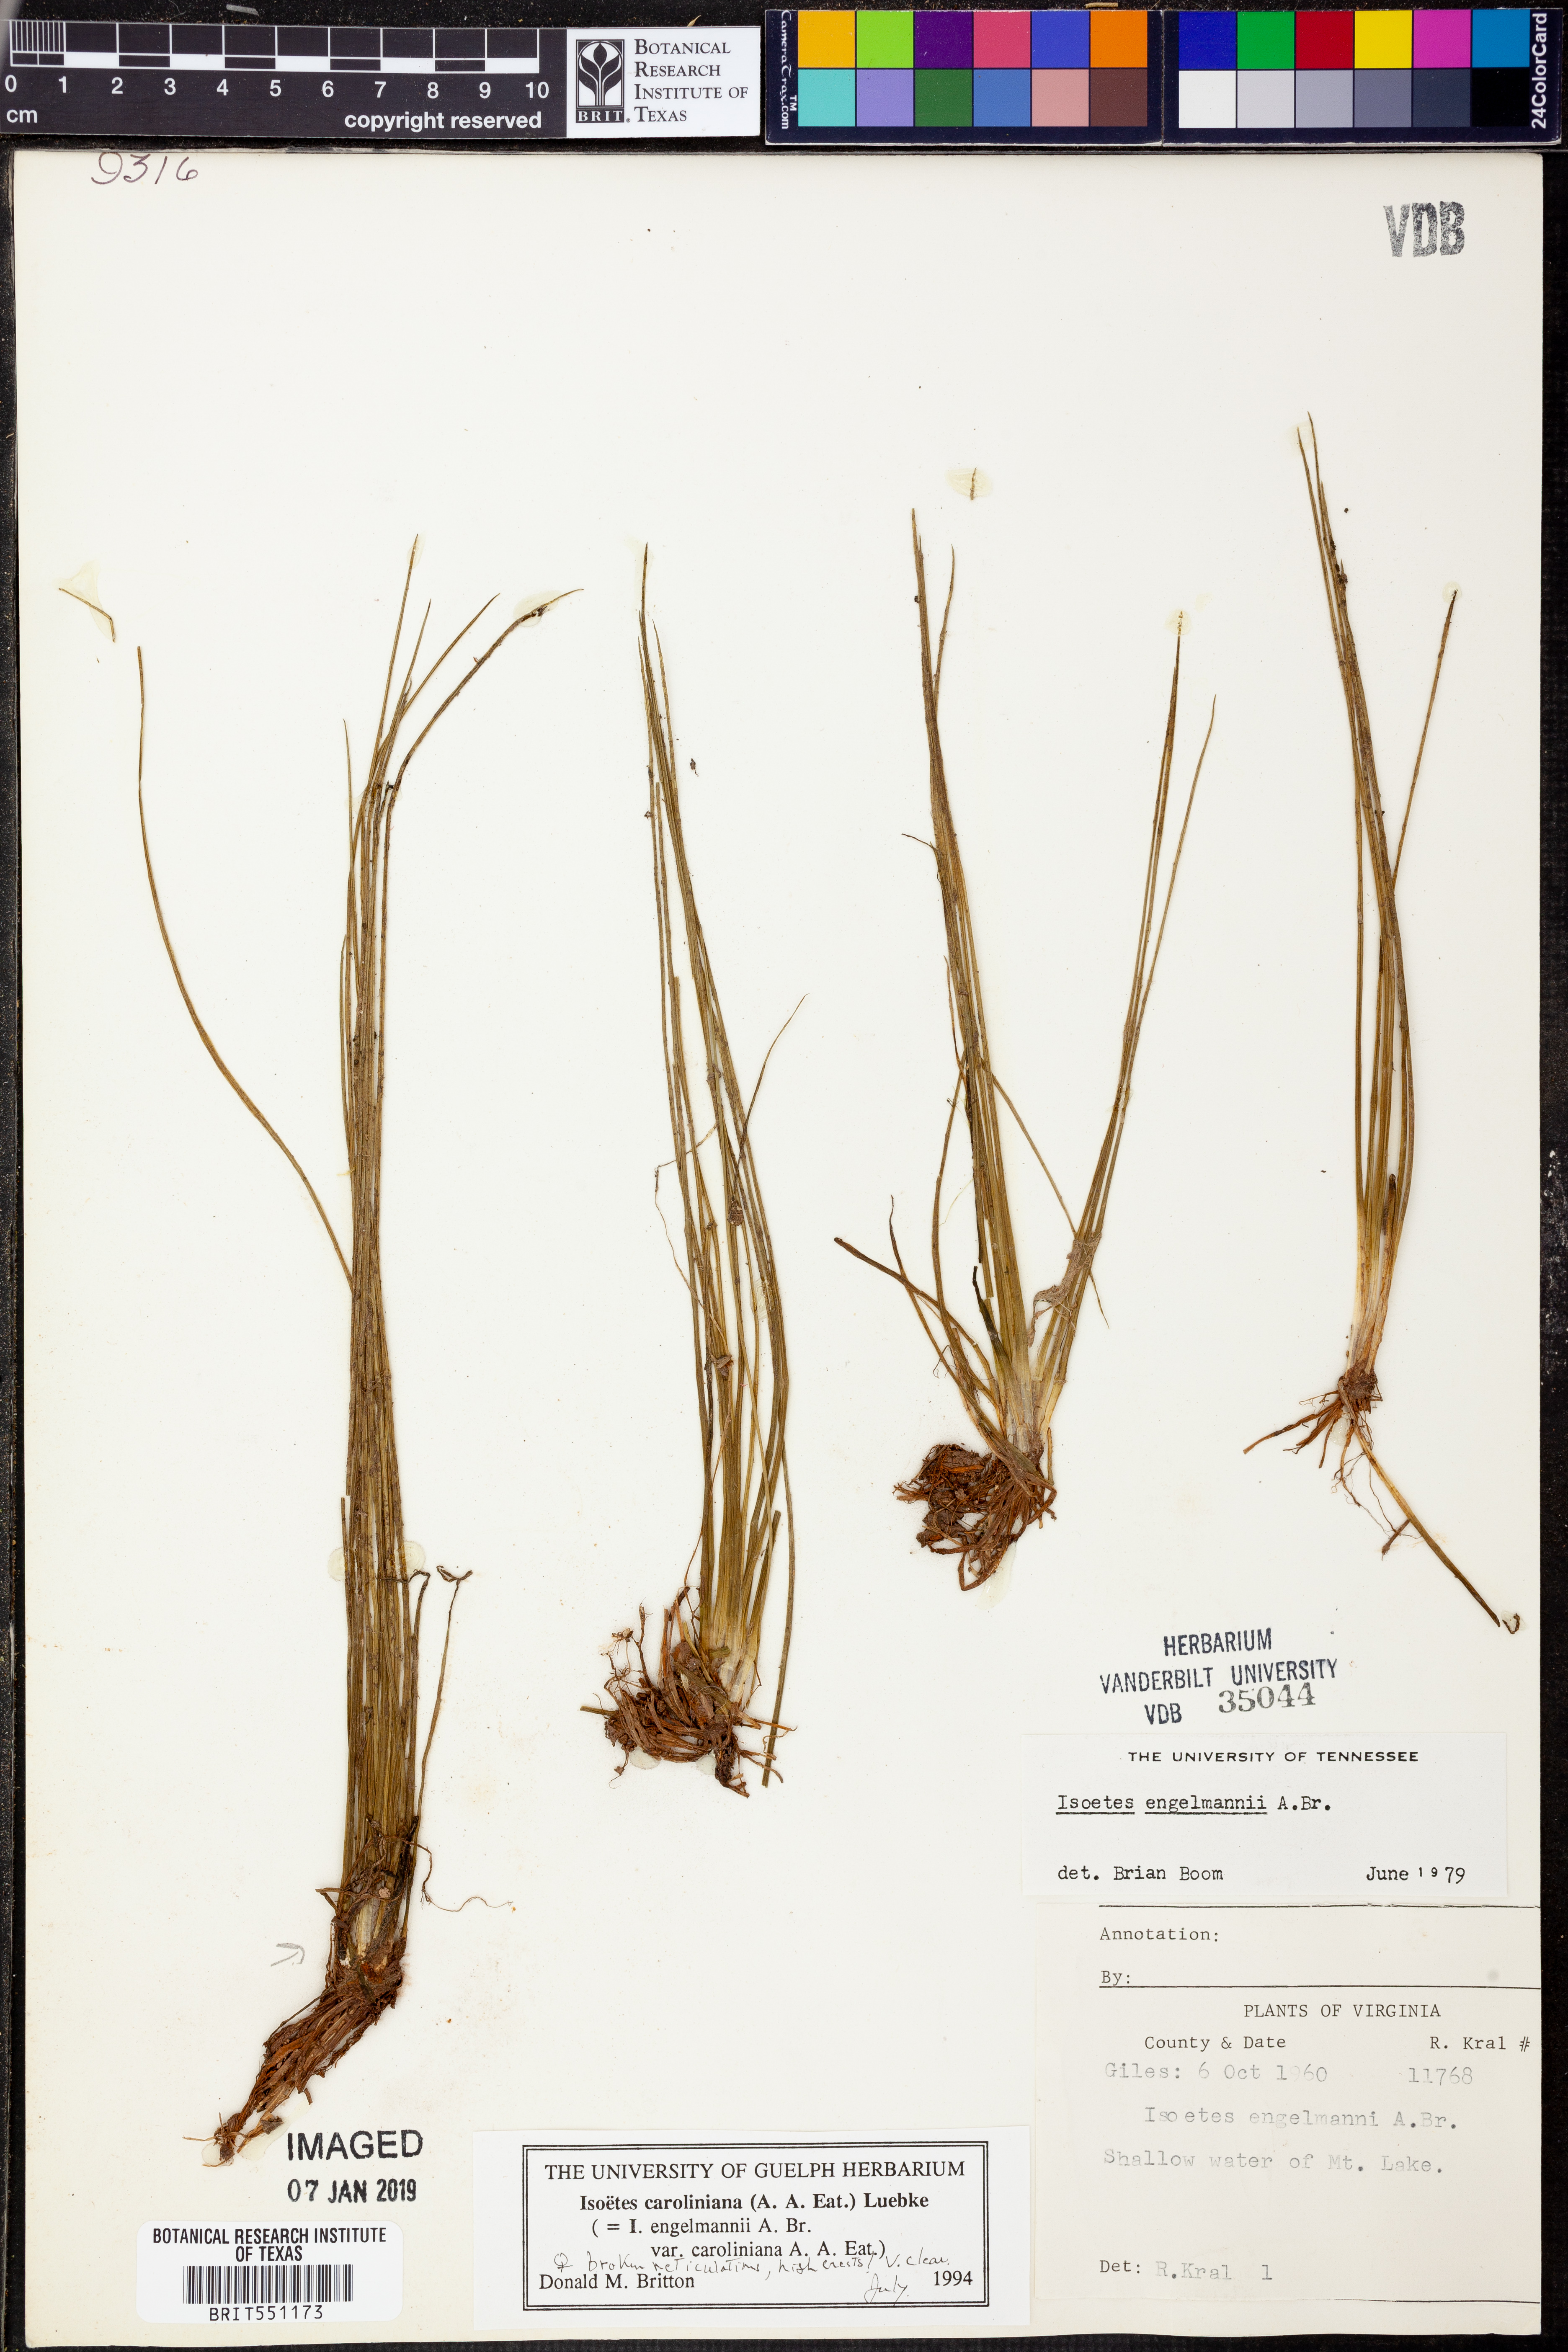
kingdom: Plantae
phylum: Tracheophyta
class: Lycopodiopsida
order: Isoetales
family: Isoetaceae
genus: Isoetes
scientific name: Isoetes caroliniana
